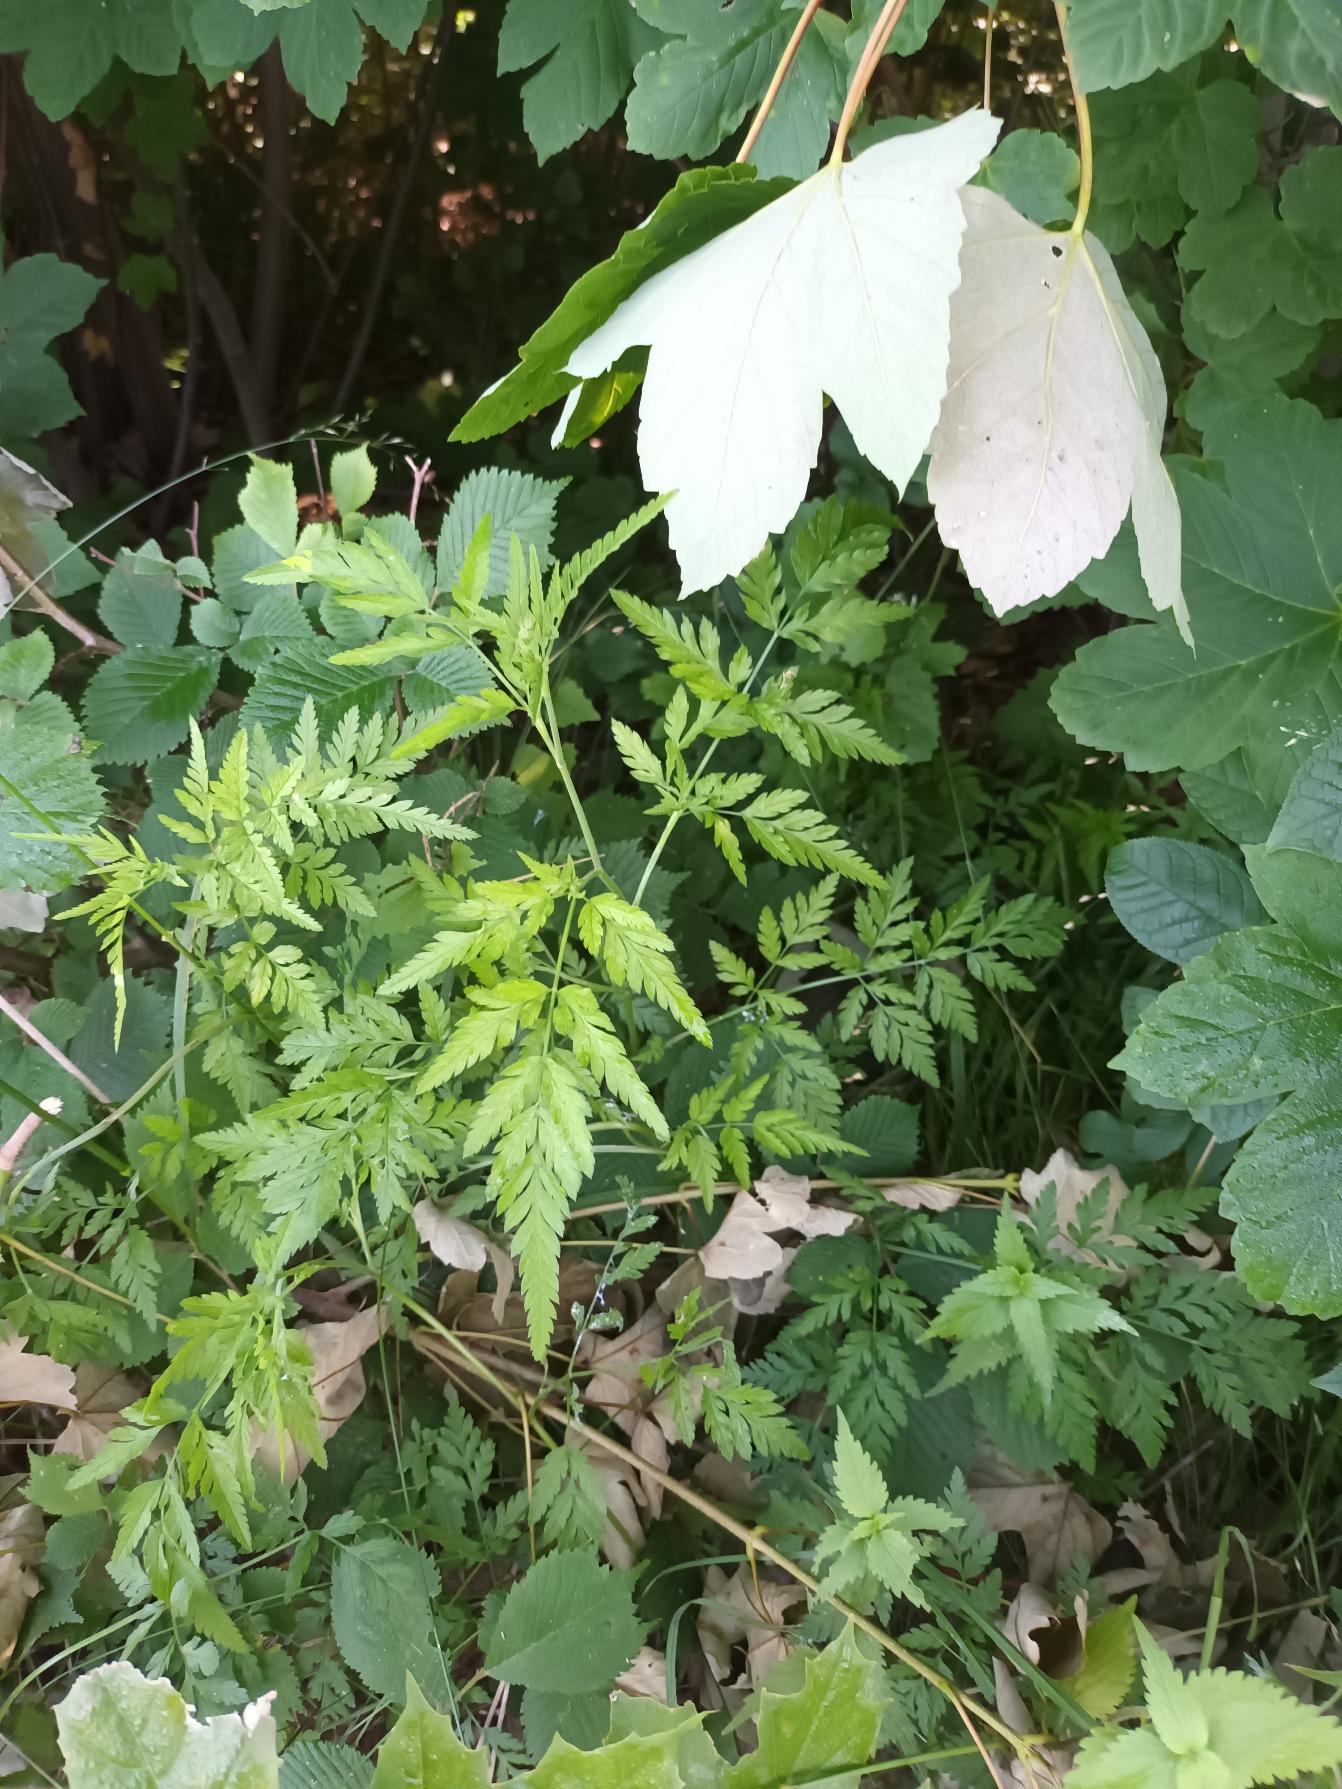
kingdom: Plantae
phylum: Tracheophyta
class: Magnoliopsida
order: Apiales
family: Apiaceae
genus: Torilis
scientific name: Torilis japonica
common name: Hvas randfrø
